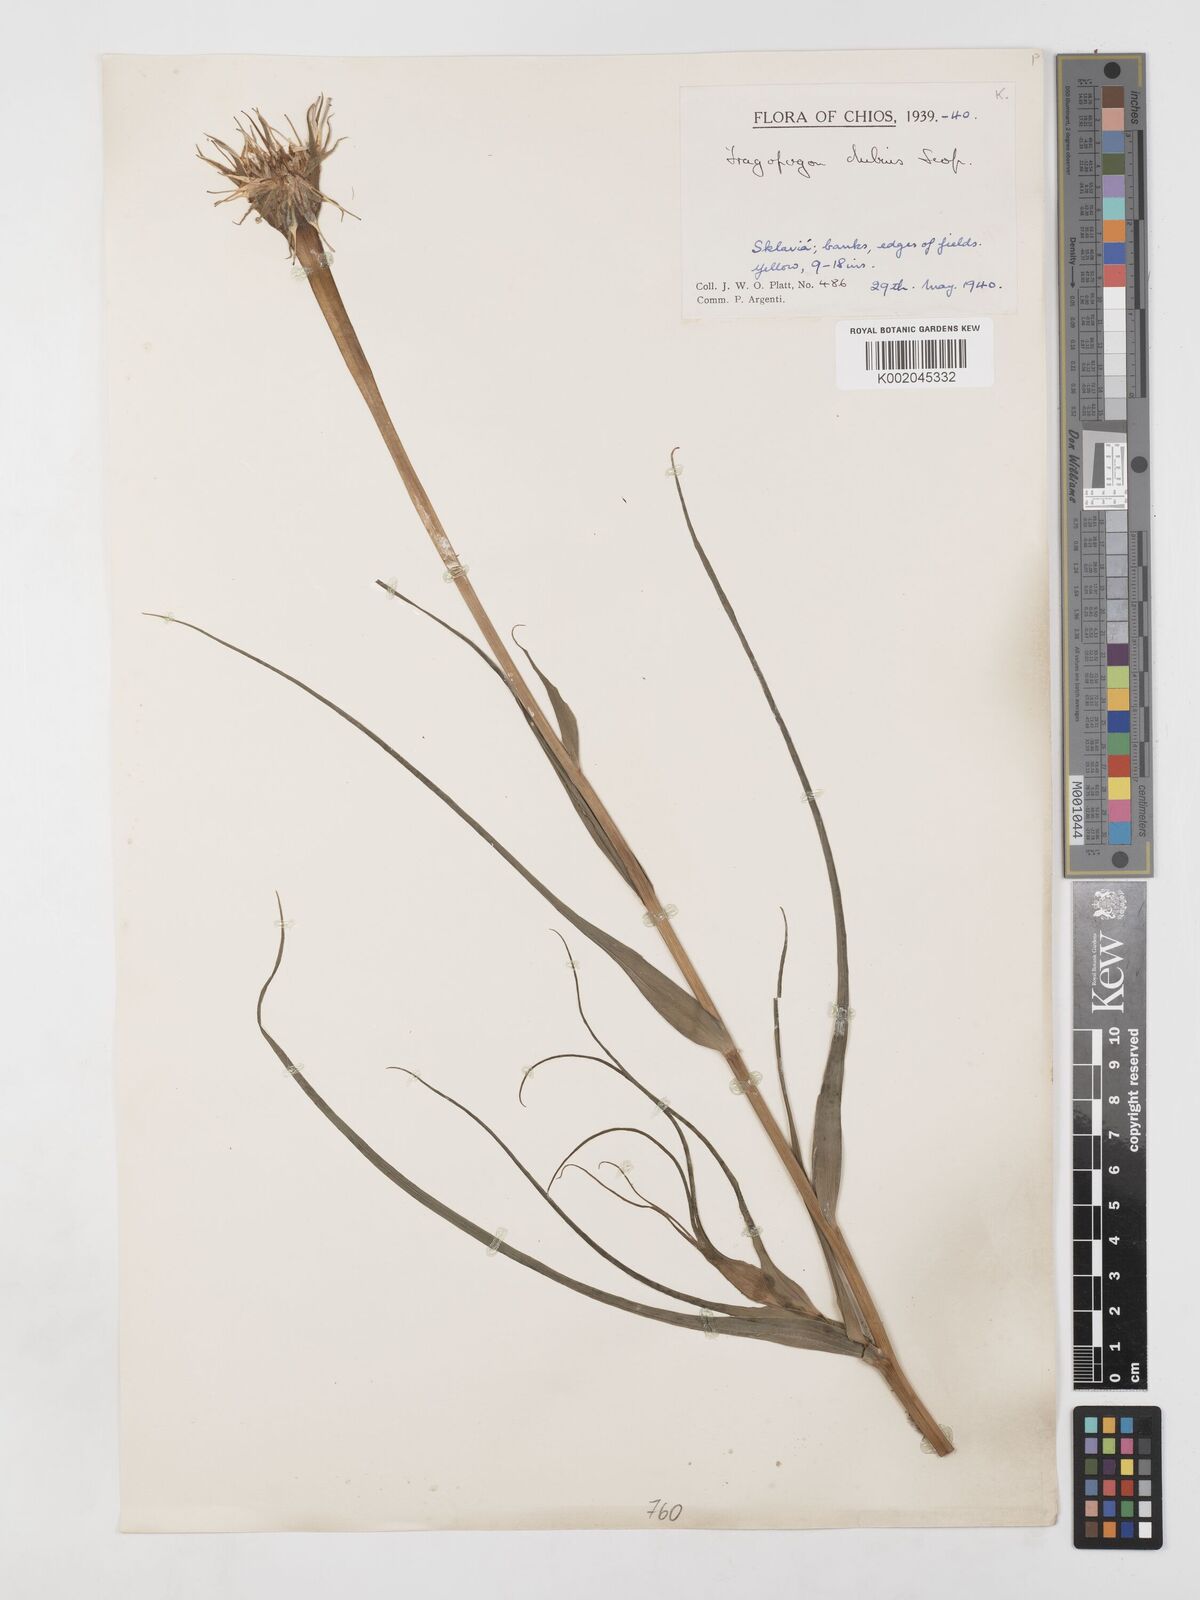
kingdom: Plantae
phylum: Tracheophyta
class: Magnoliopsida
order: Asterales
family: Asteraceae
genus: Tragopogon
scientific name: Tragopogon dubius
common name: Yellow salsify
